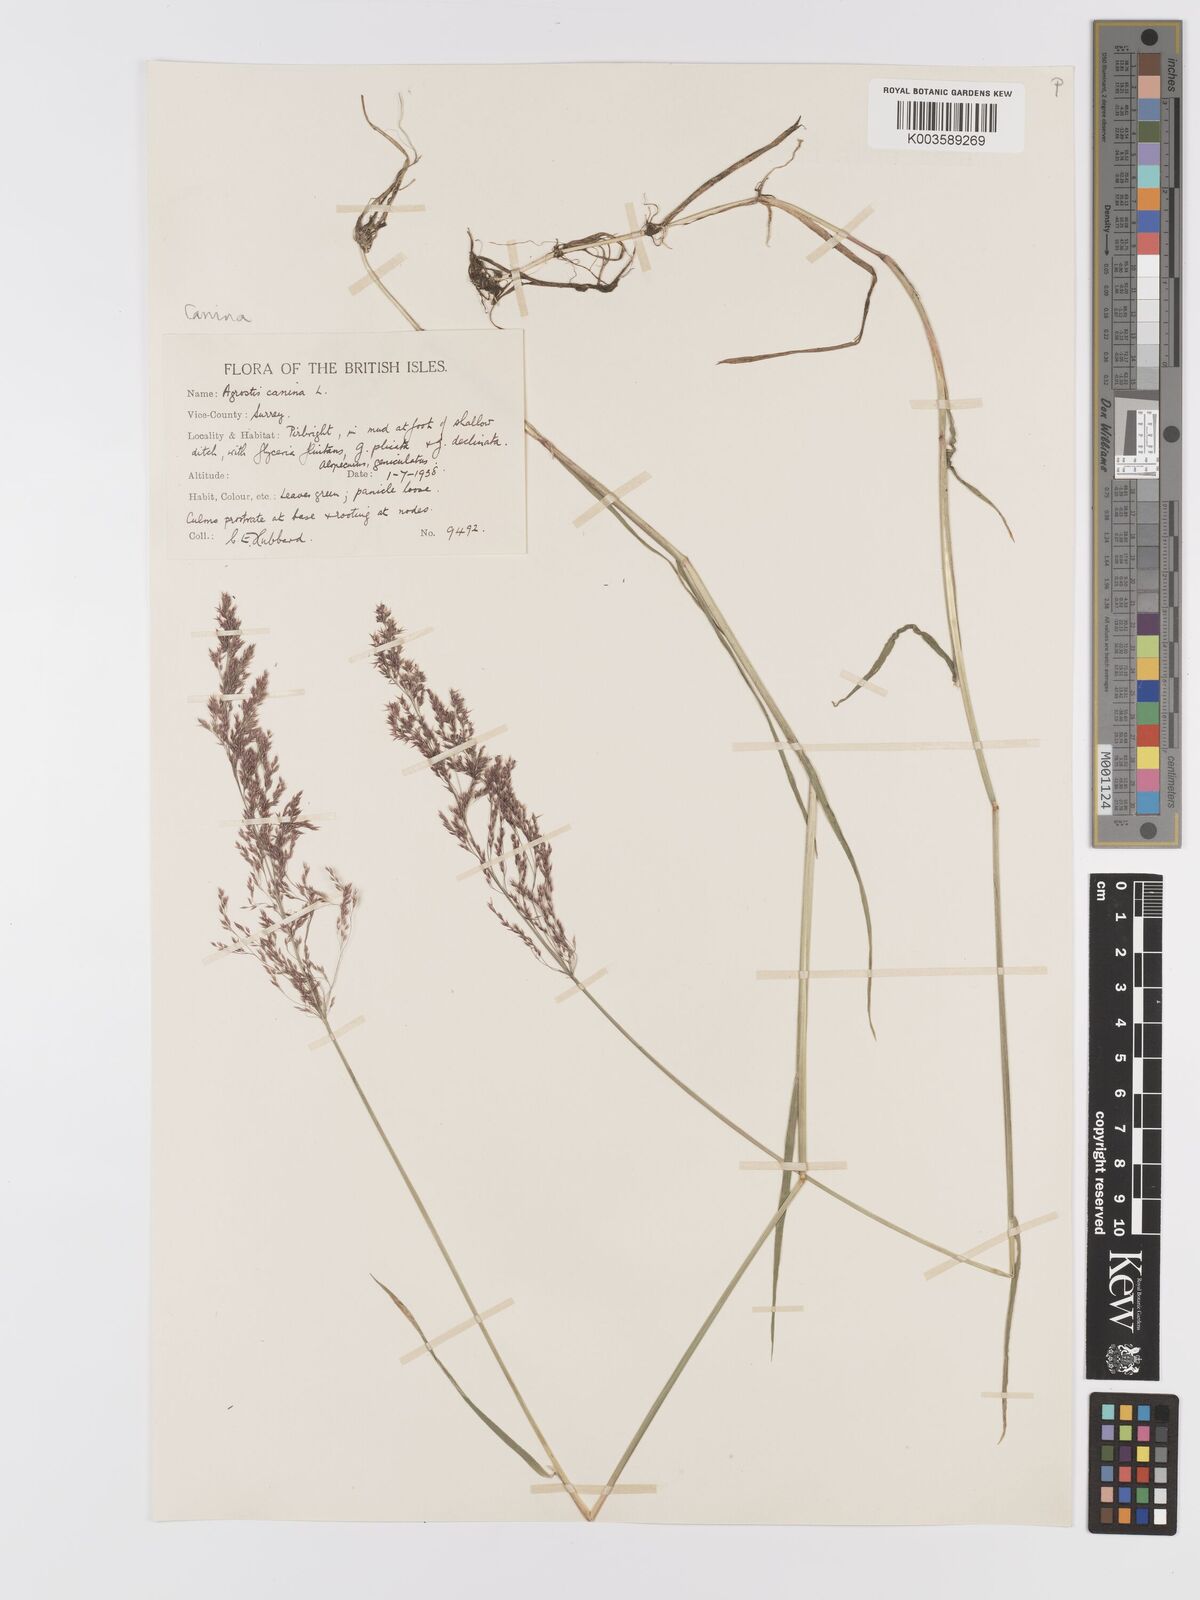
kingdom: Plantae
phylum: Tracheophyta
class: Liliopsida
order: Poales
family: Poaceae
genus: Agrostis
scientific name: Agrostis canina
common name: Velvet bent
